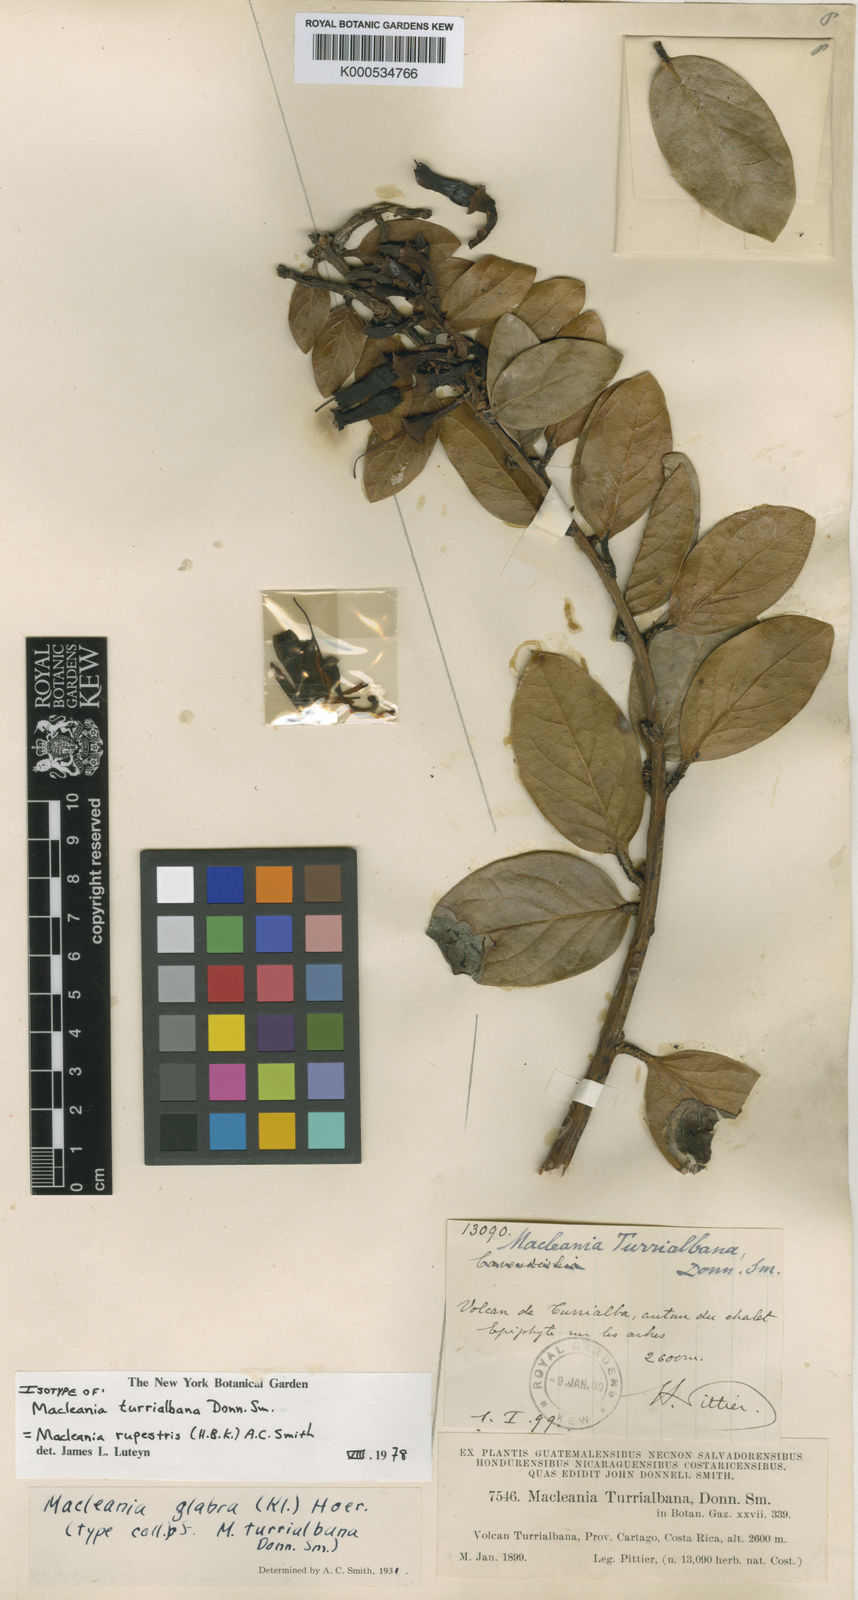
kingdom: Plantae
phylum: Tracheophyta
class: Magnoliopsida
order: Ericales
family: Ericaceae
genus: Macleania
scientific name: Macleania rupestris
